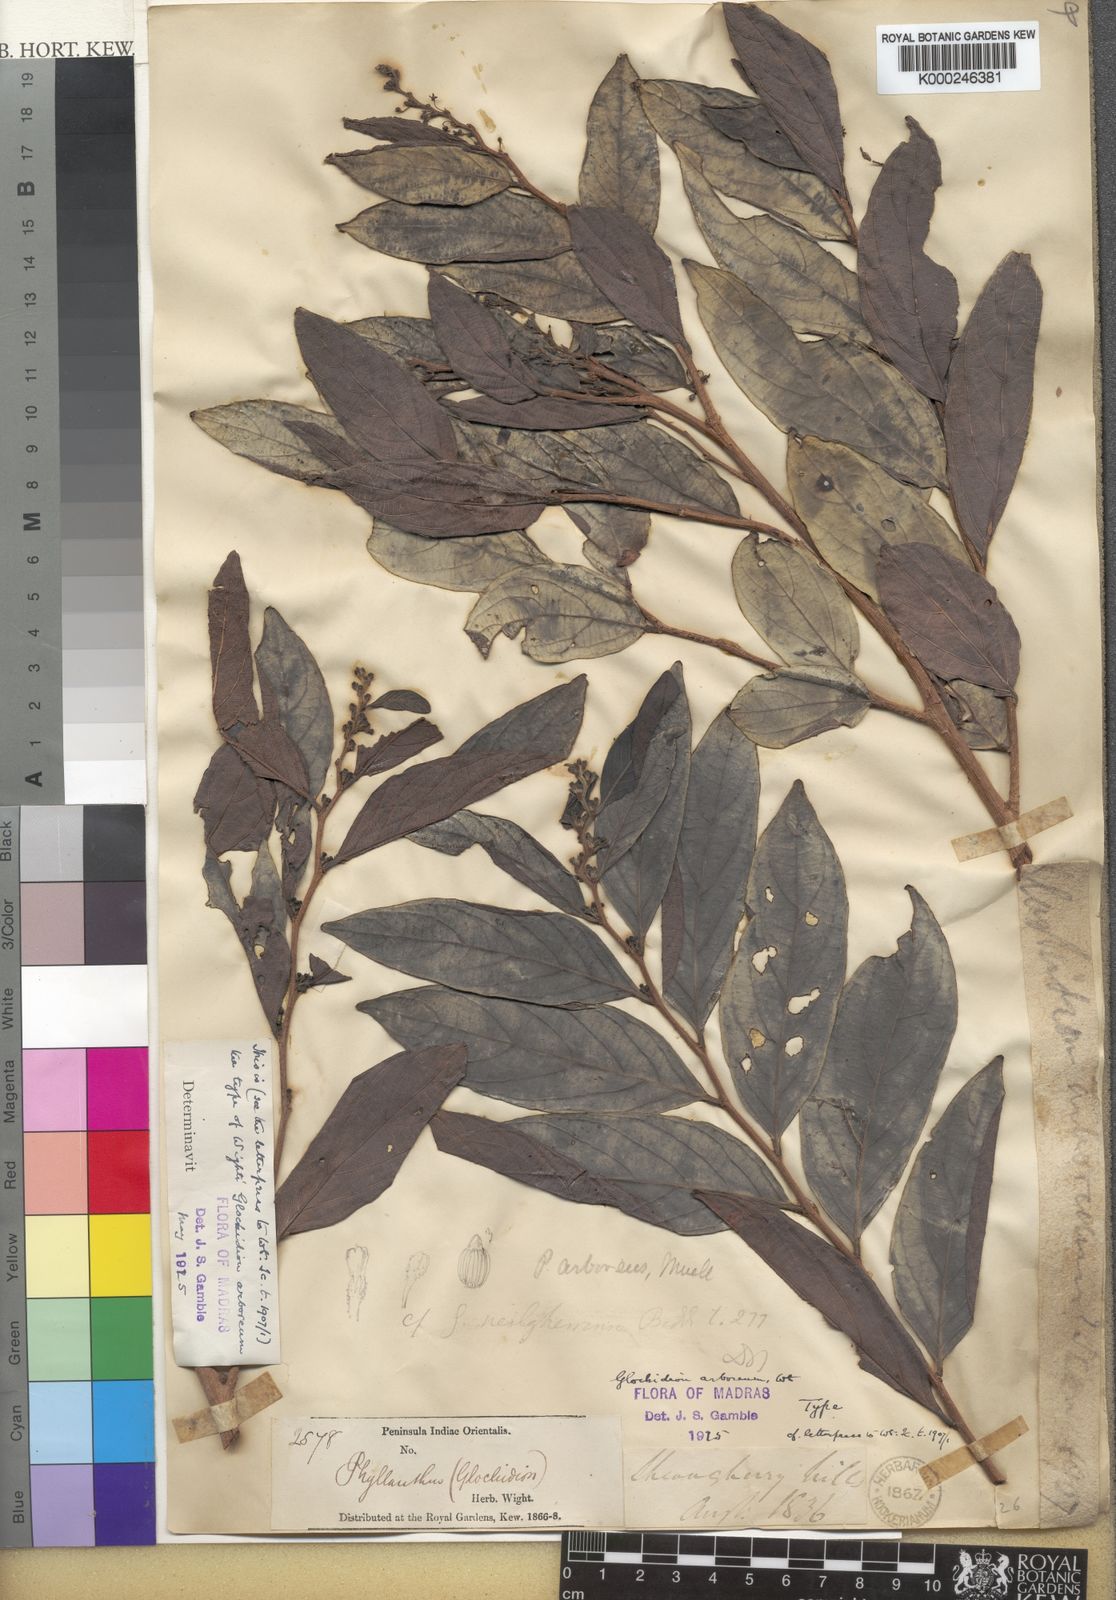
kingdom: Plantae
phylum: Tracheophyta
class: Magnoliopsida
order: Malpighiales
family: Phyllanthaceae
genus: Glochidion
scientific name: Glochidion candolleanum
